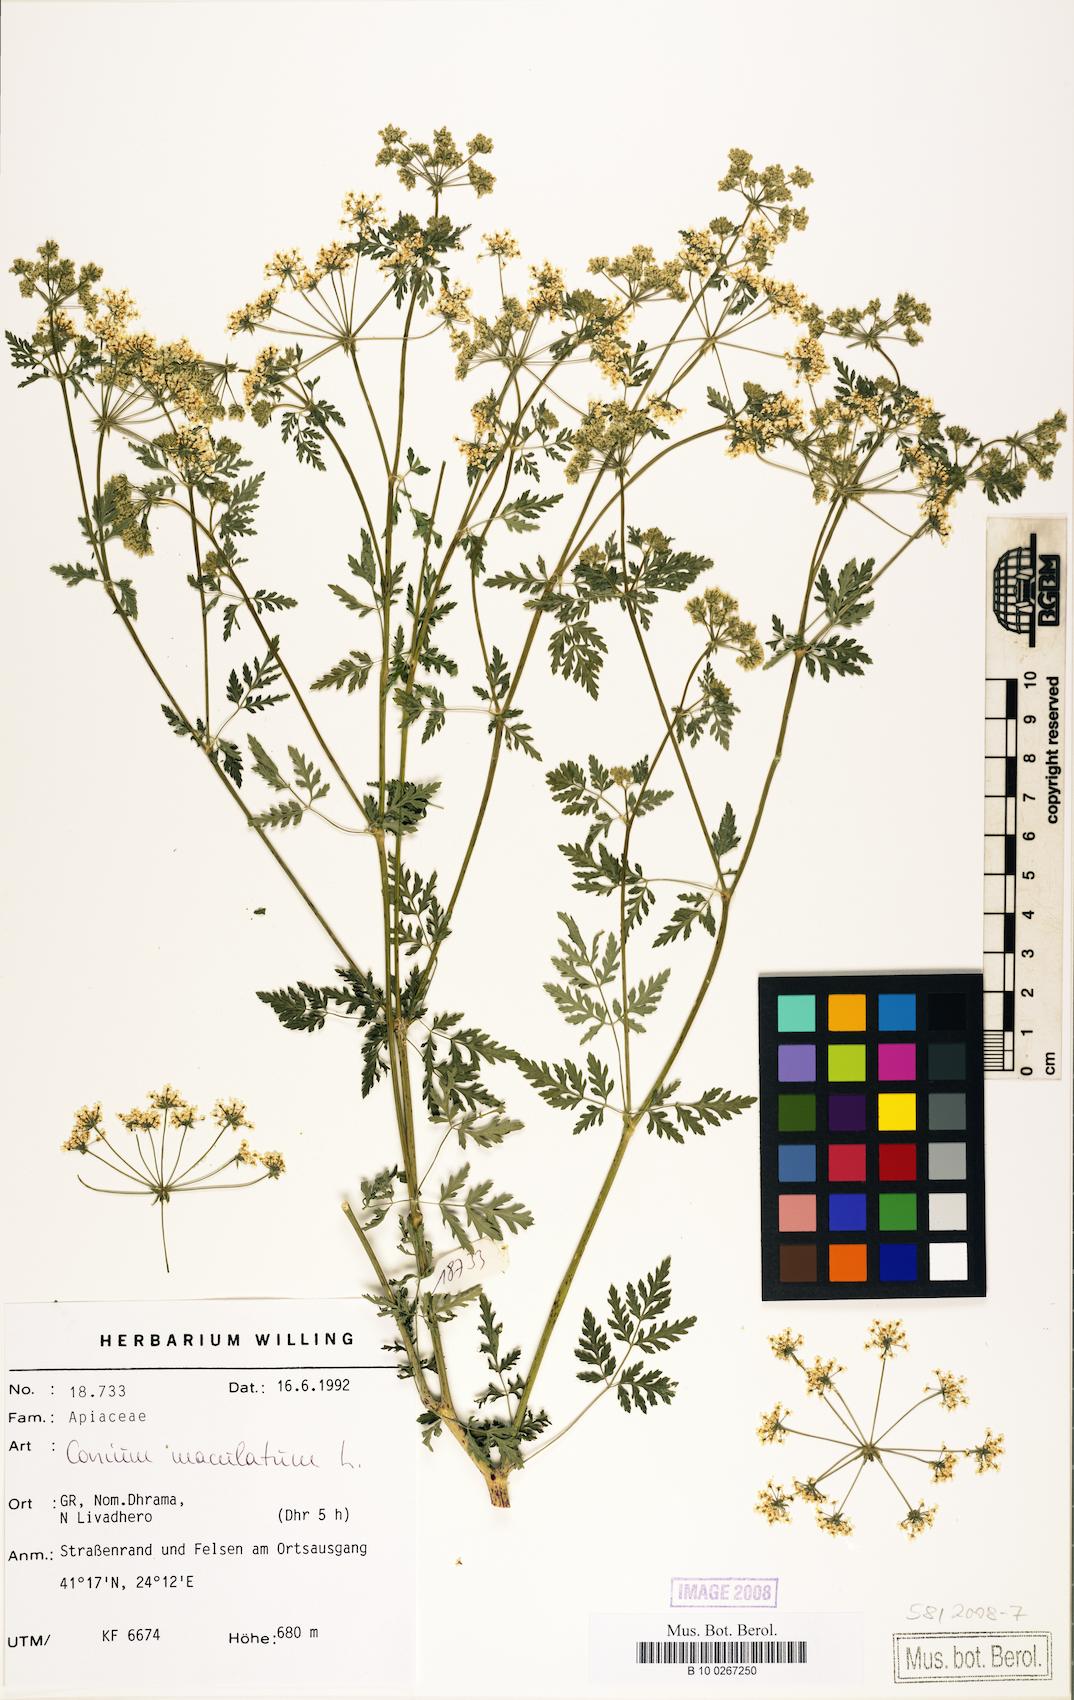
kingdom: Plantae
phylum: Tracheophyta
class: Magnoliopsida
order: Apiales
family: Apiaceae
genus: Conium
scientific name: Conium maculatum
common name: Hemlock
